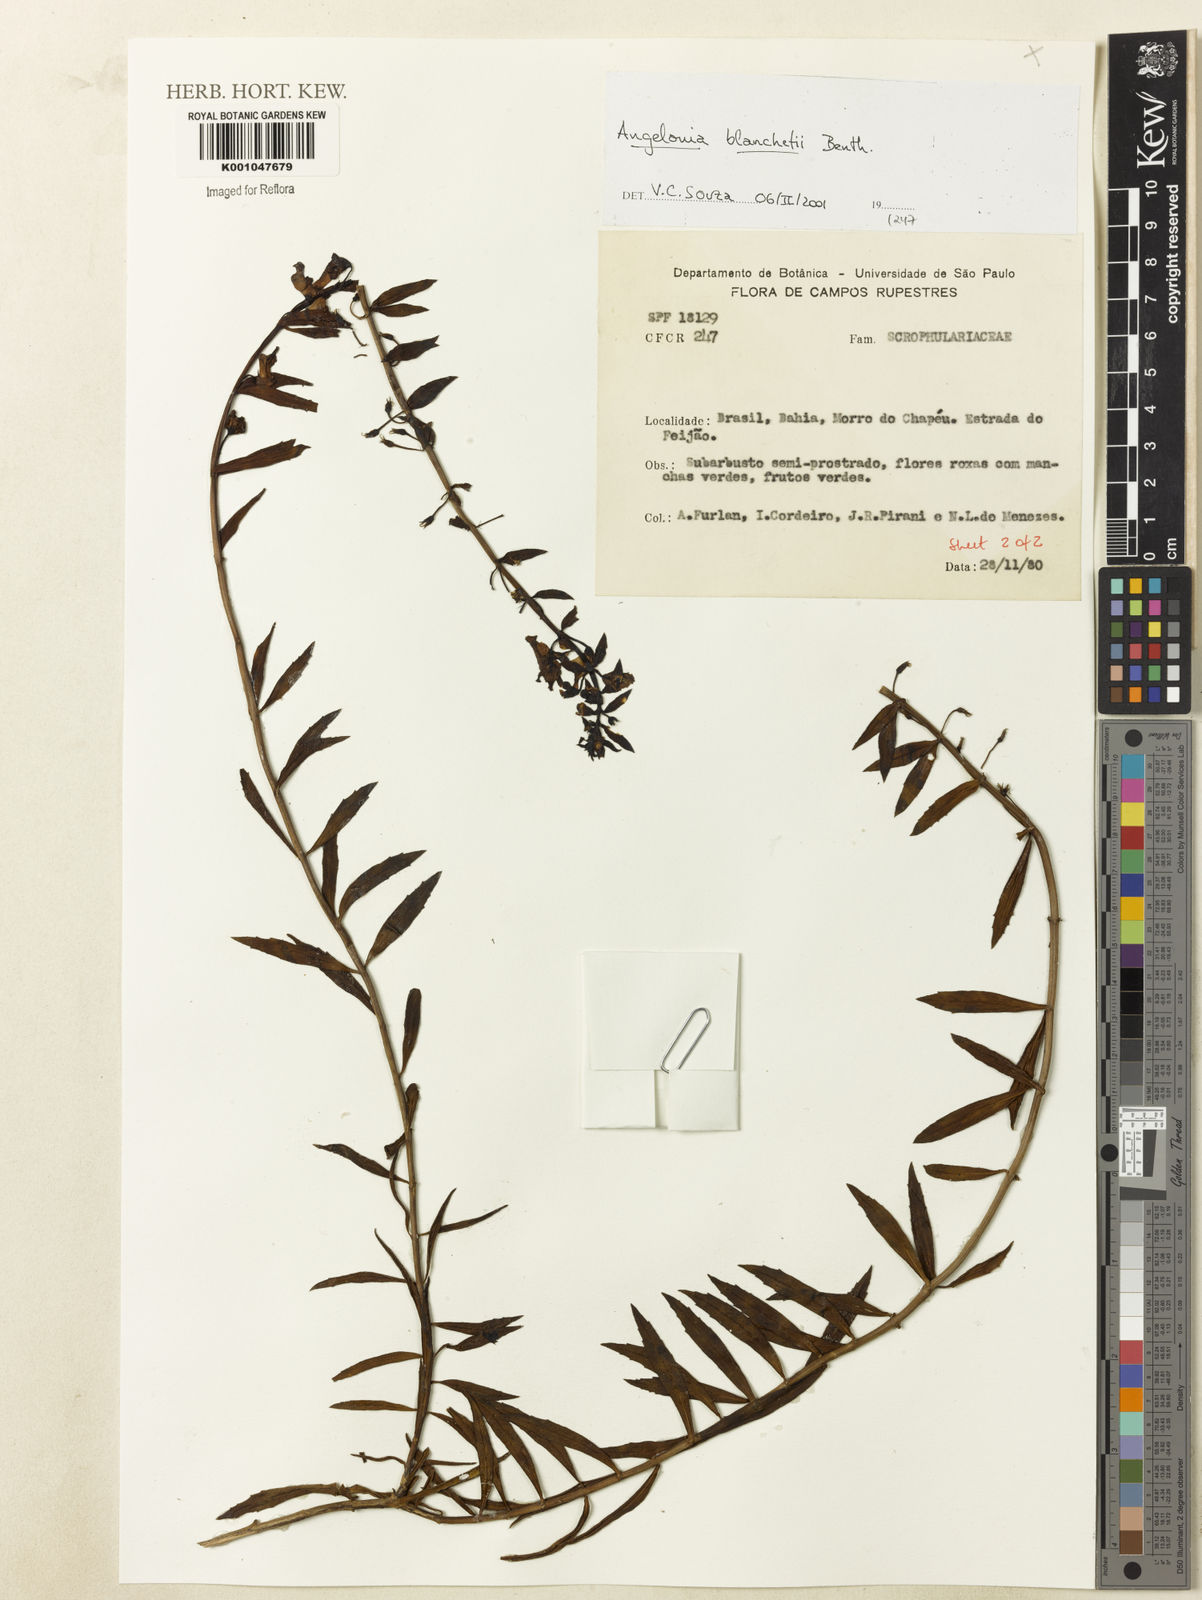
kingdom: Plantae
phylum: Tracheophyta
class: Magnoliopsida
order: Lamiales
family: Plantaginaceae
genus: Angelonia
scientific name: Angelonia blanchetii
